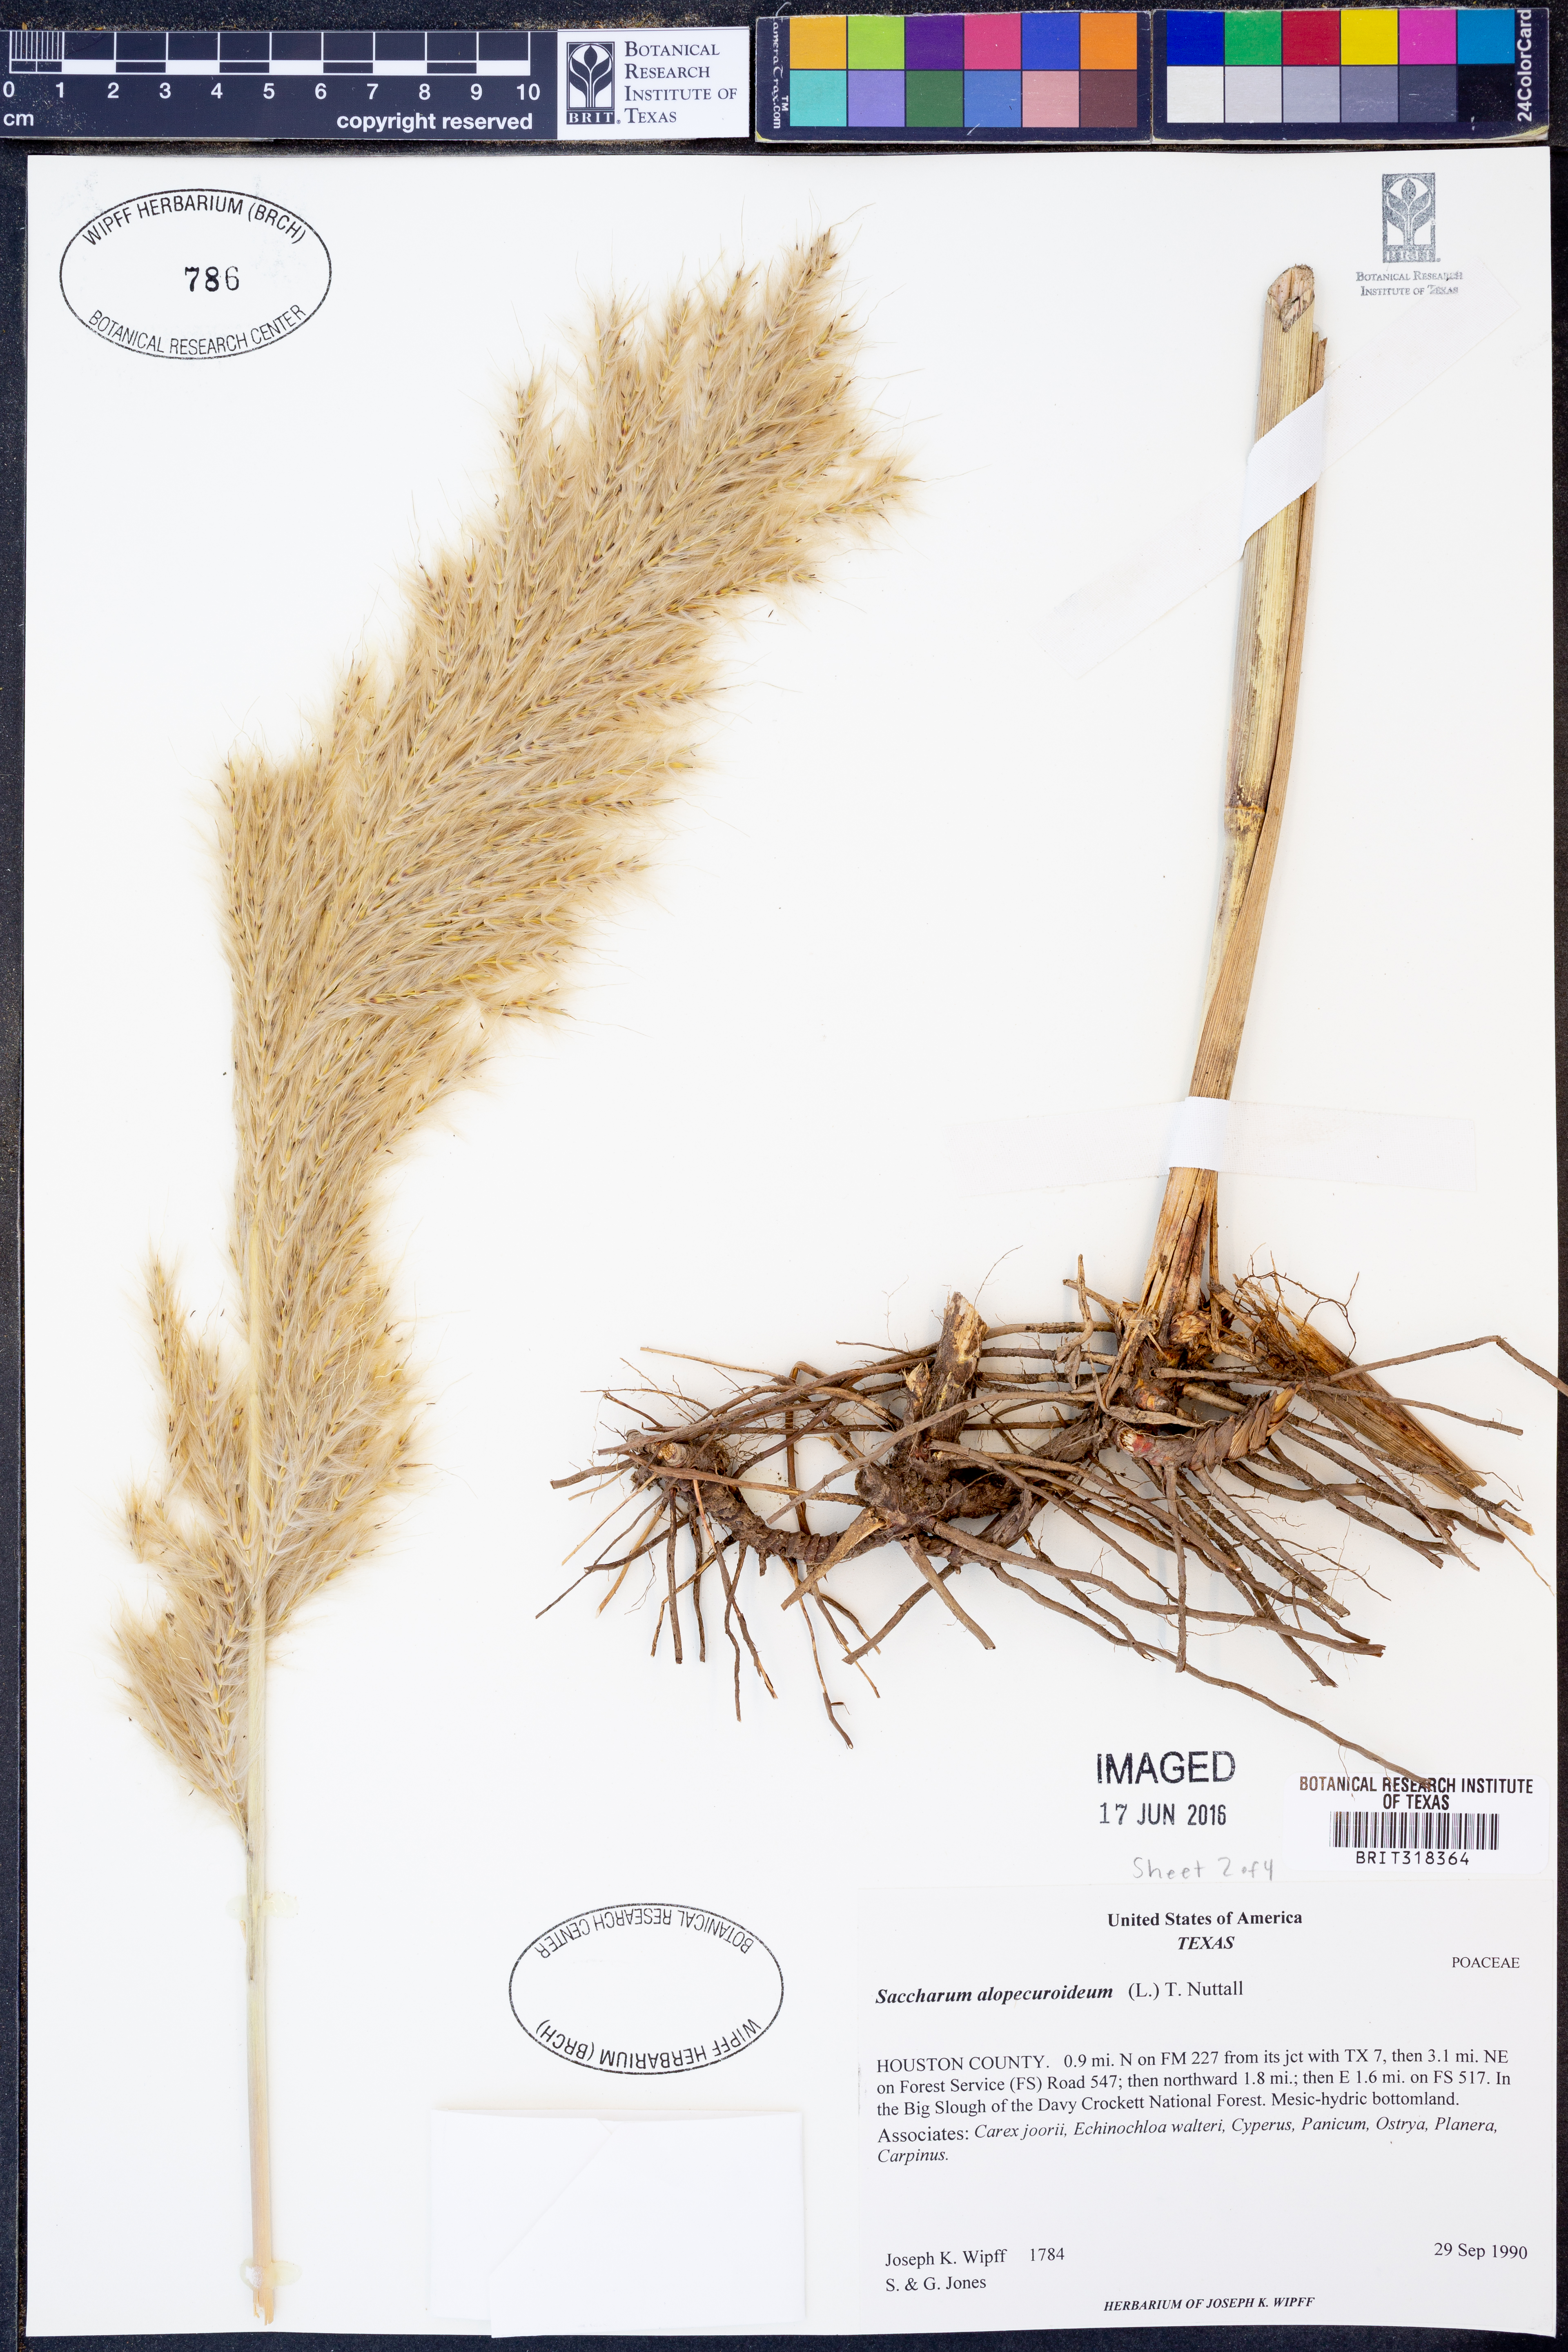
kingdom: Plantae
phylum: Tracheophyta
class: Liliopsida
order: Poales
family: Poaceae
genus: Erianthus
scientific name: Erianthus alopecuroides
